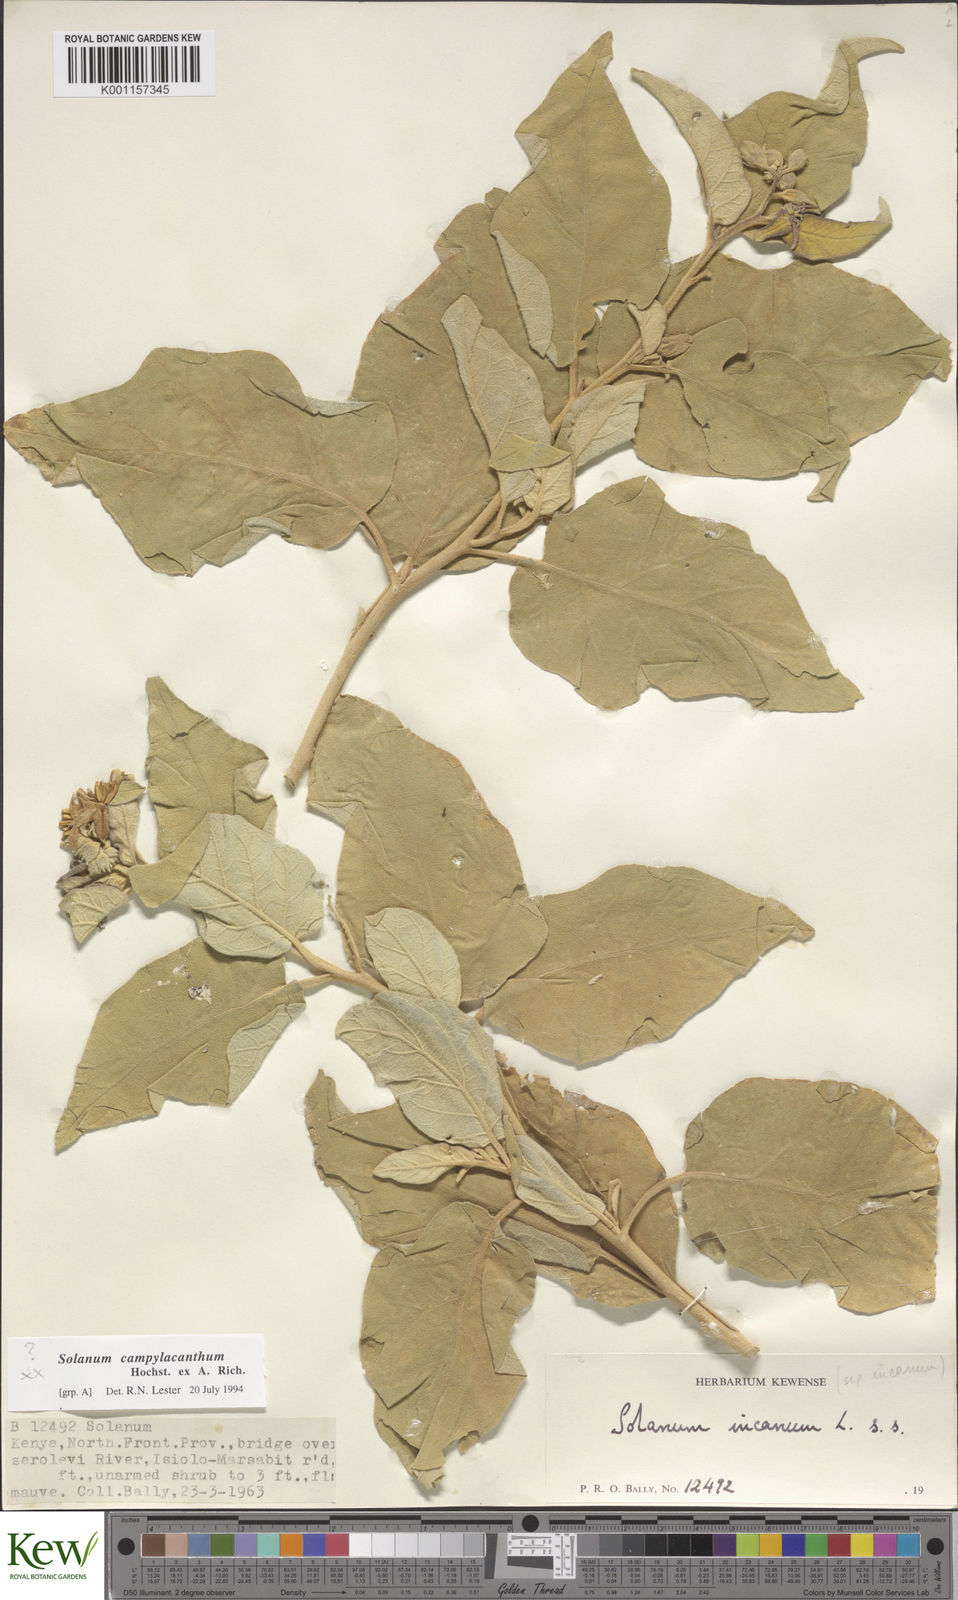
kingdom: Plantae
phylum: Tracheophyta
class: Magnoliopsida
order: Solanales
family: Solanaceae
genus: Solanum
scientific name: Solanum campylacanthum
